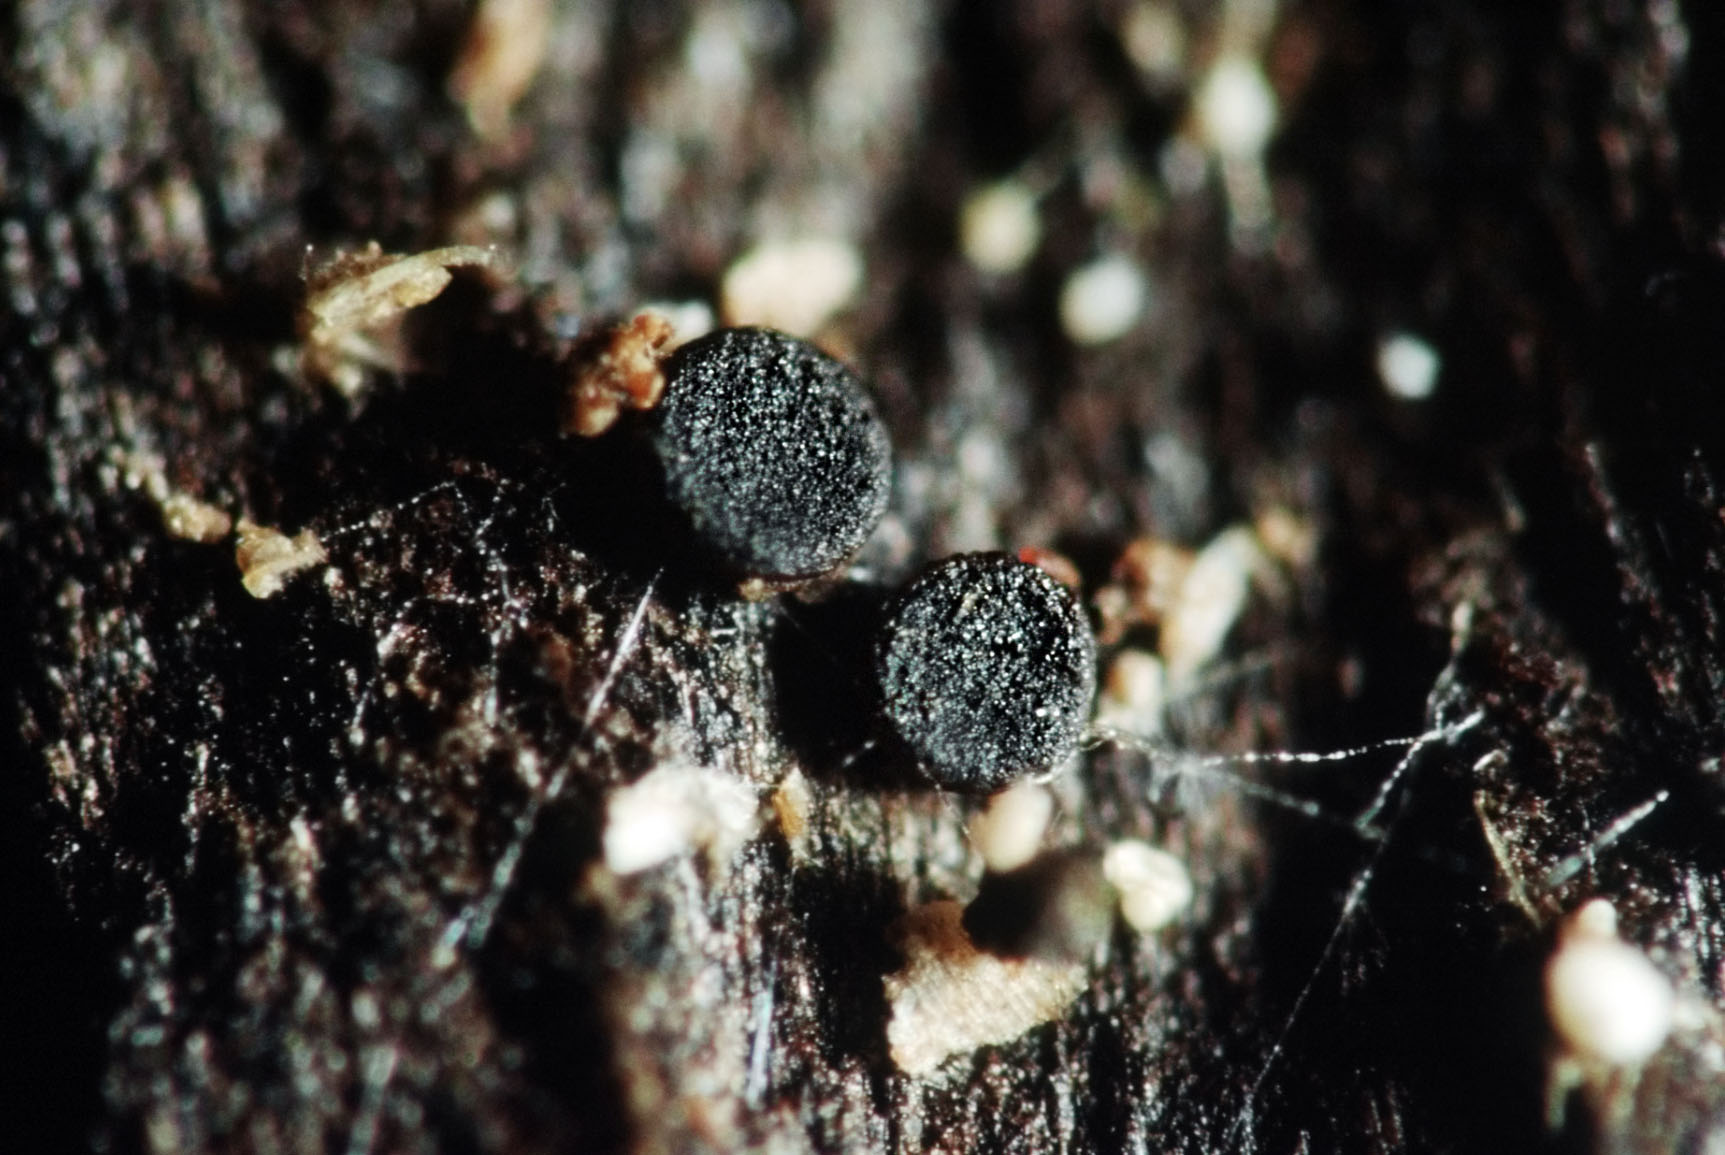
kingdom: Fungi
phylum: Ascomycota
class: Lecanoromycetes
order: Lecanorales
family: Dactylosporaceae
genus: Dactylospora
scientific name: Dactylospora
